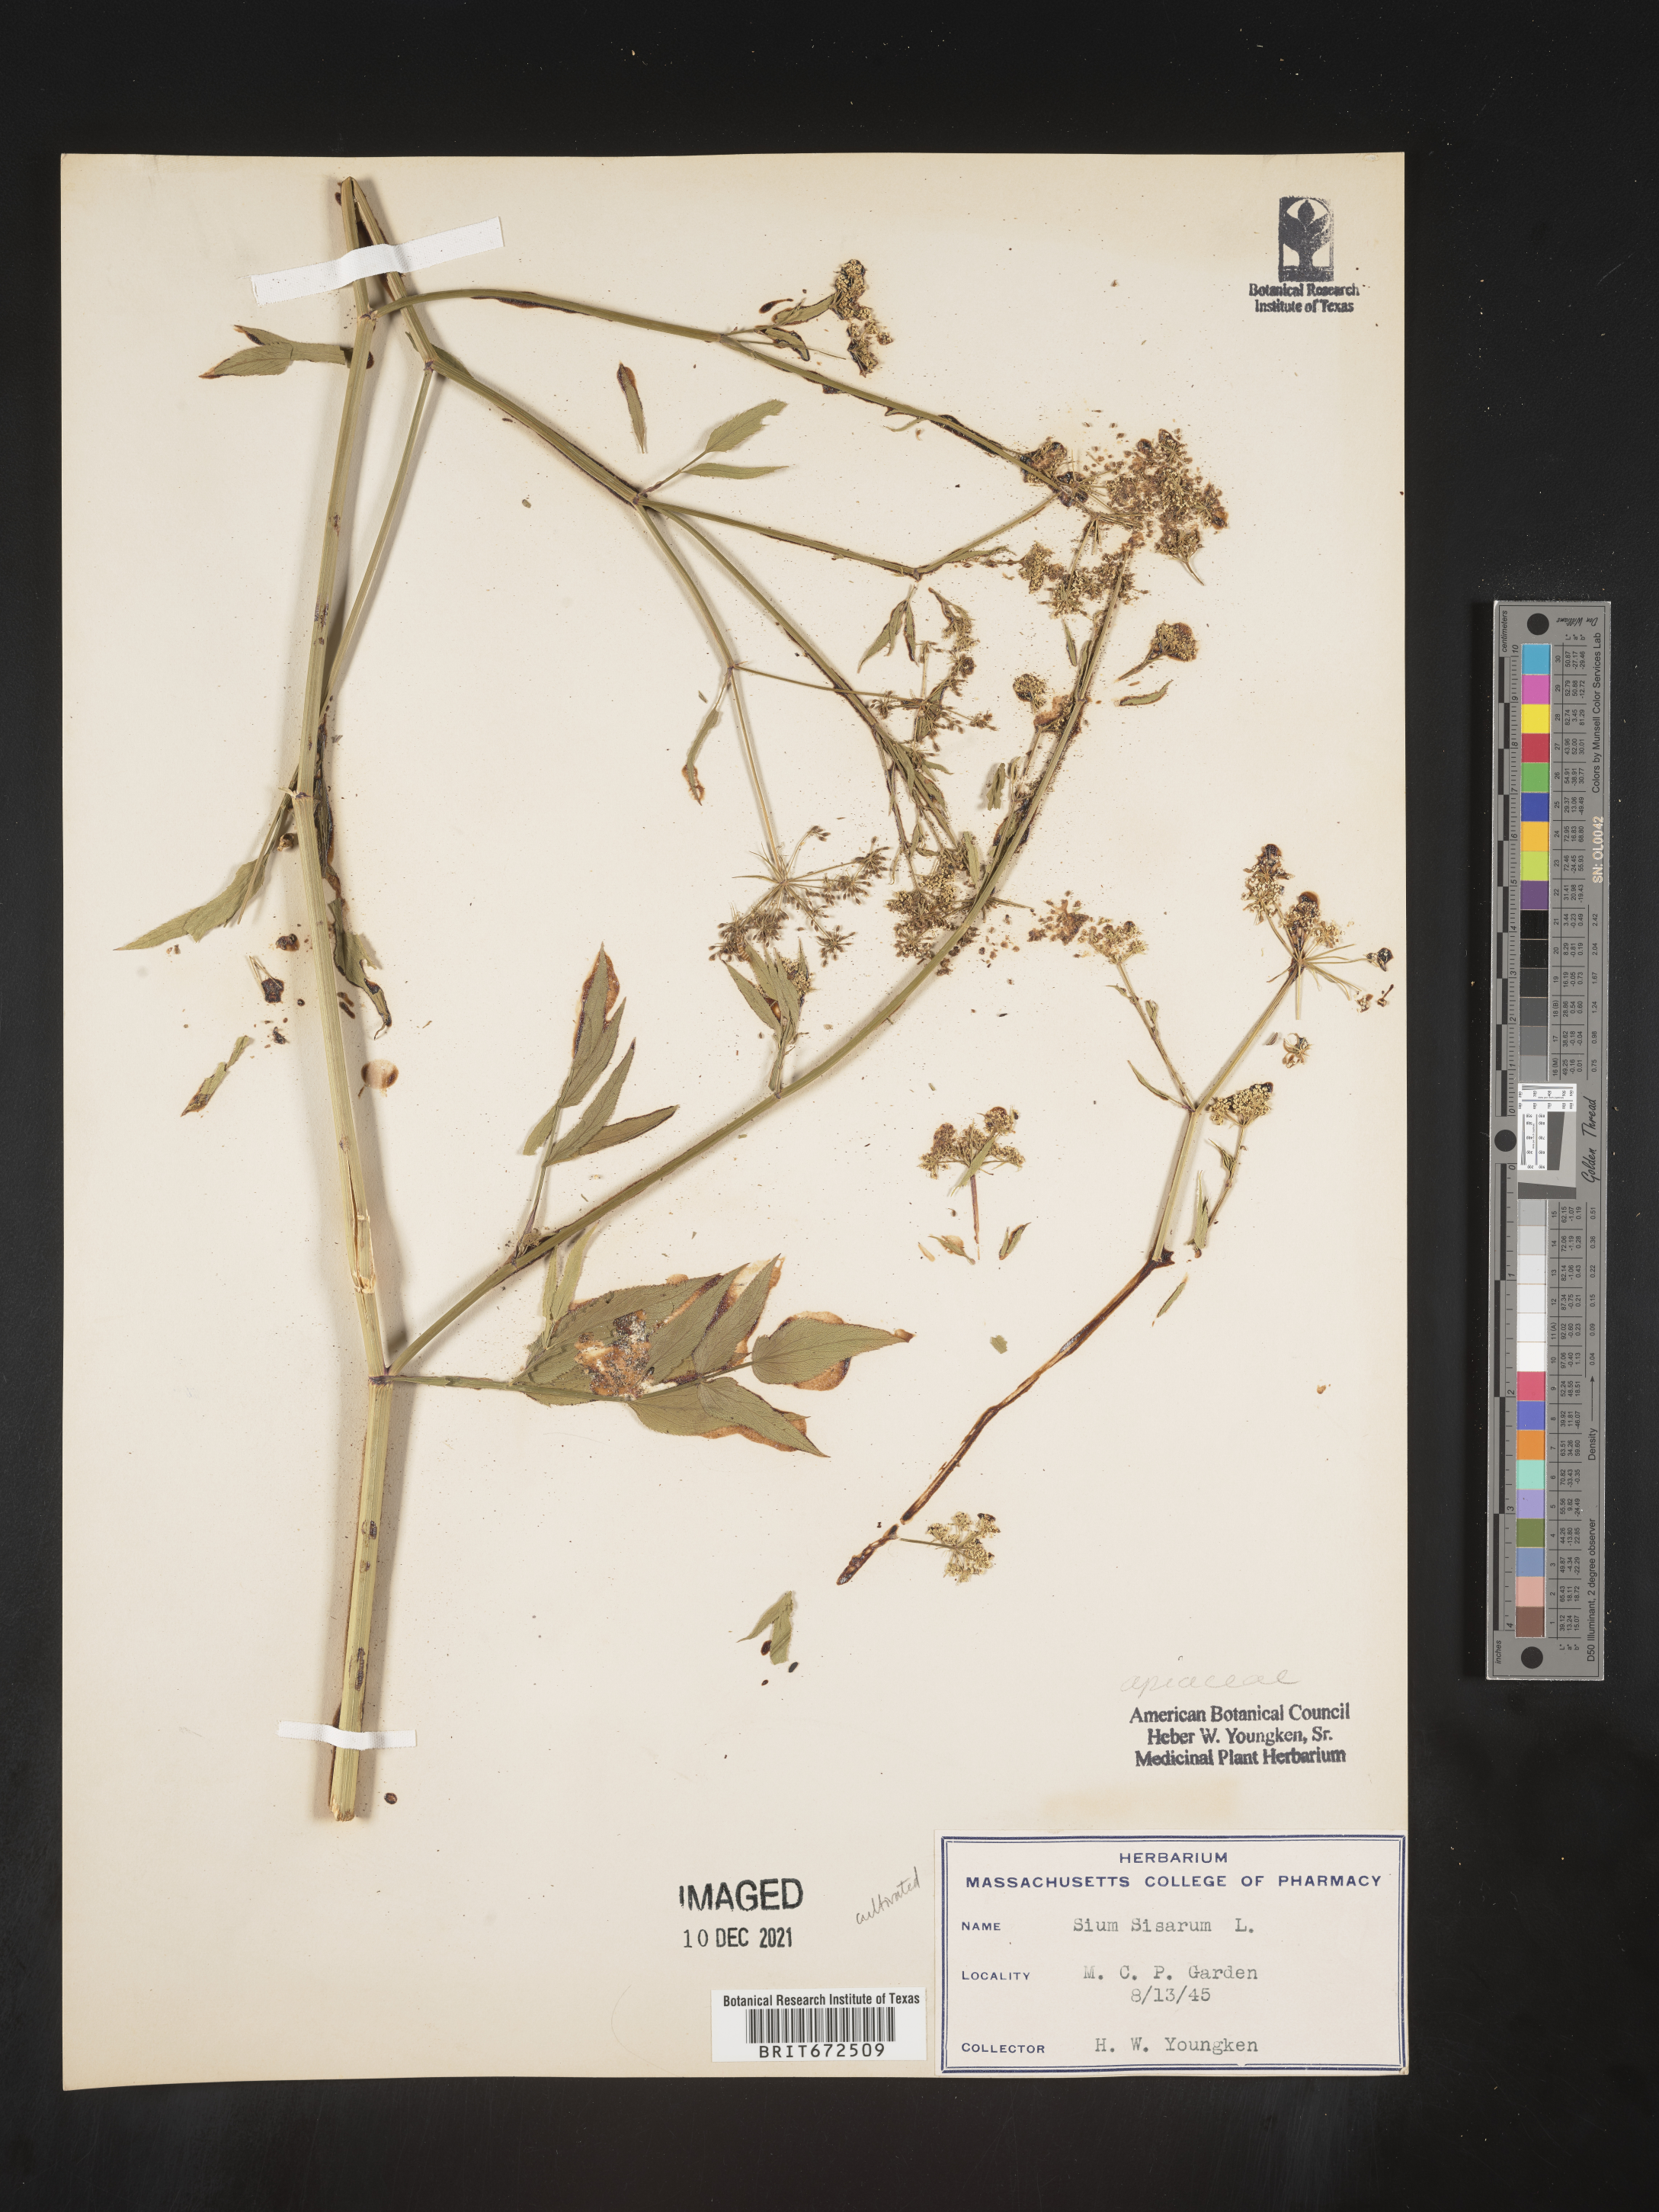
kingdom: Plantae
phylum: Tracheophyta
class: Magnoliopsida
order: Apiales
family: Apiaceae
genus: Sium
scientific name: Sium
